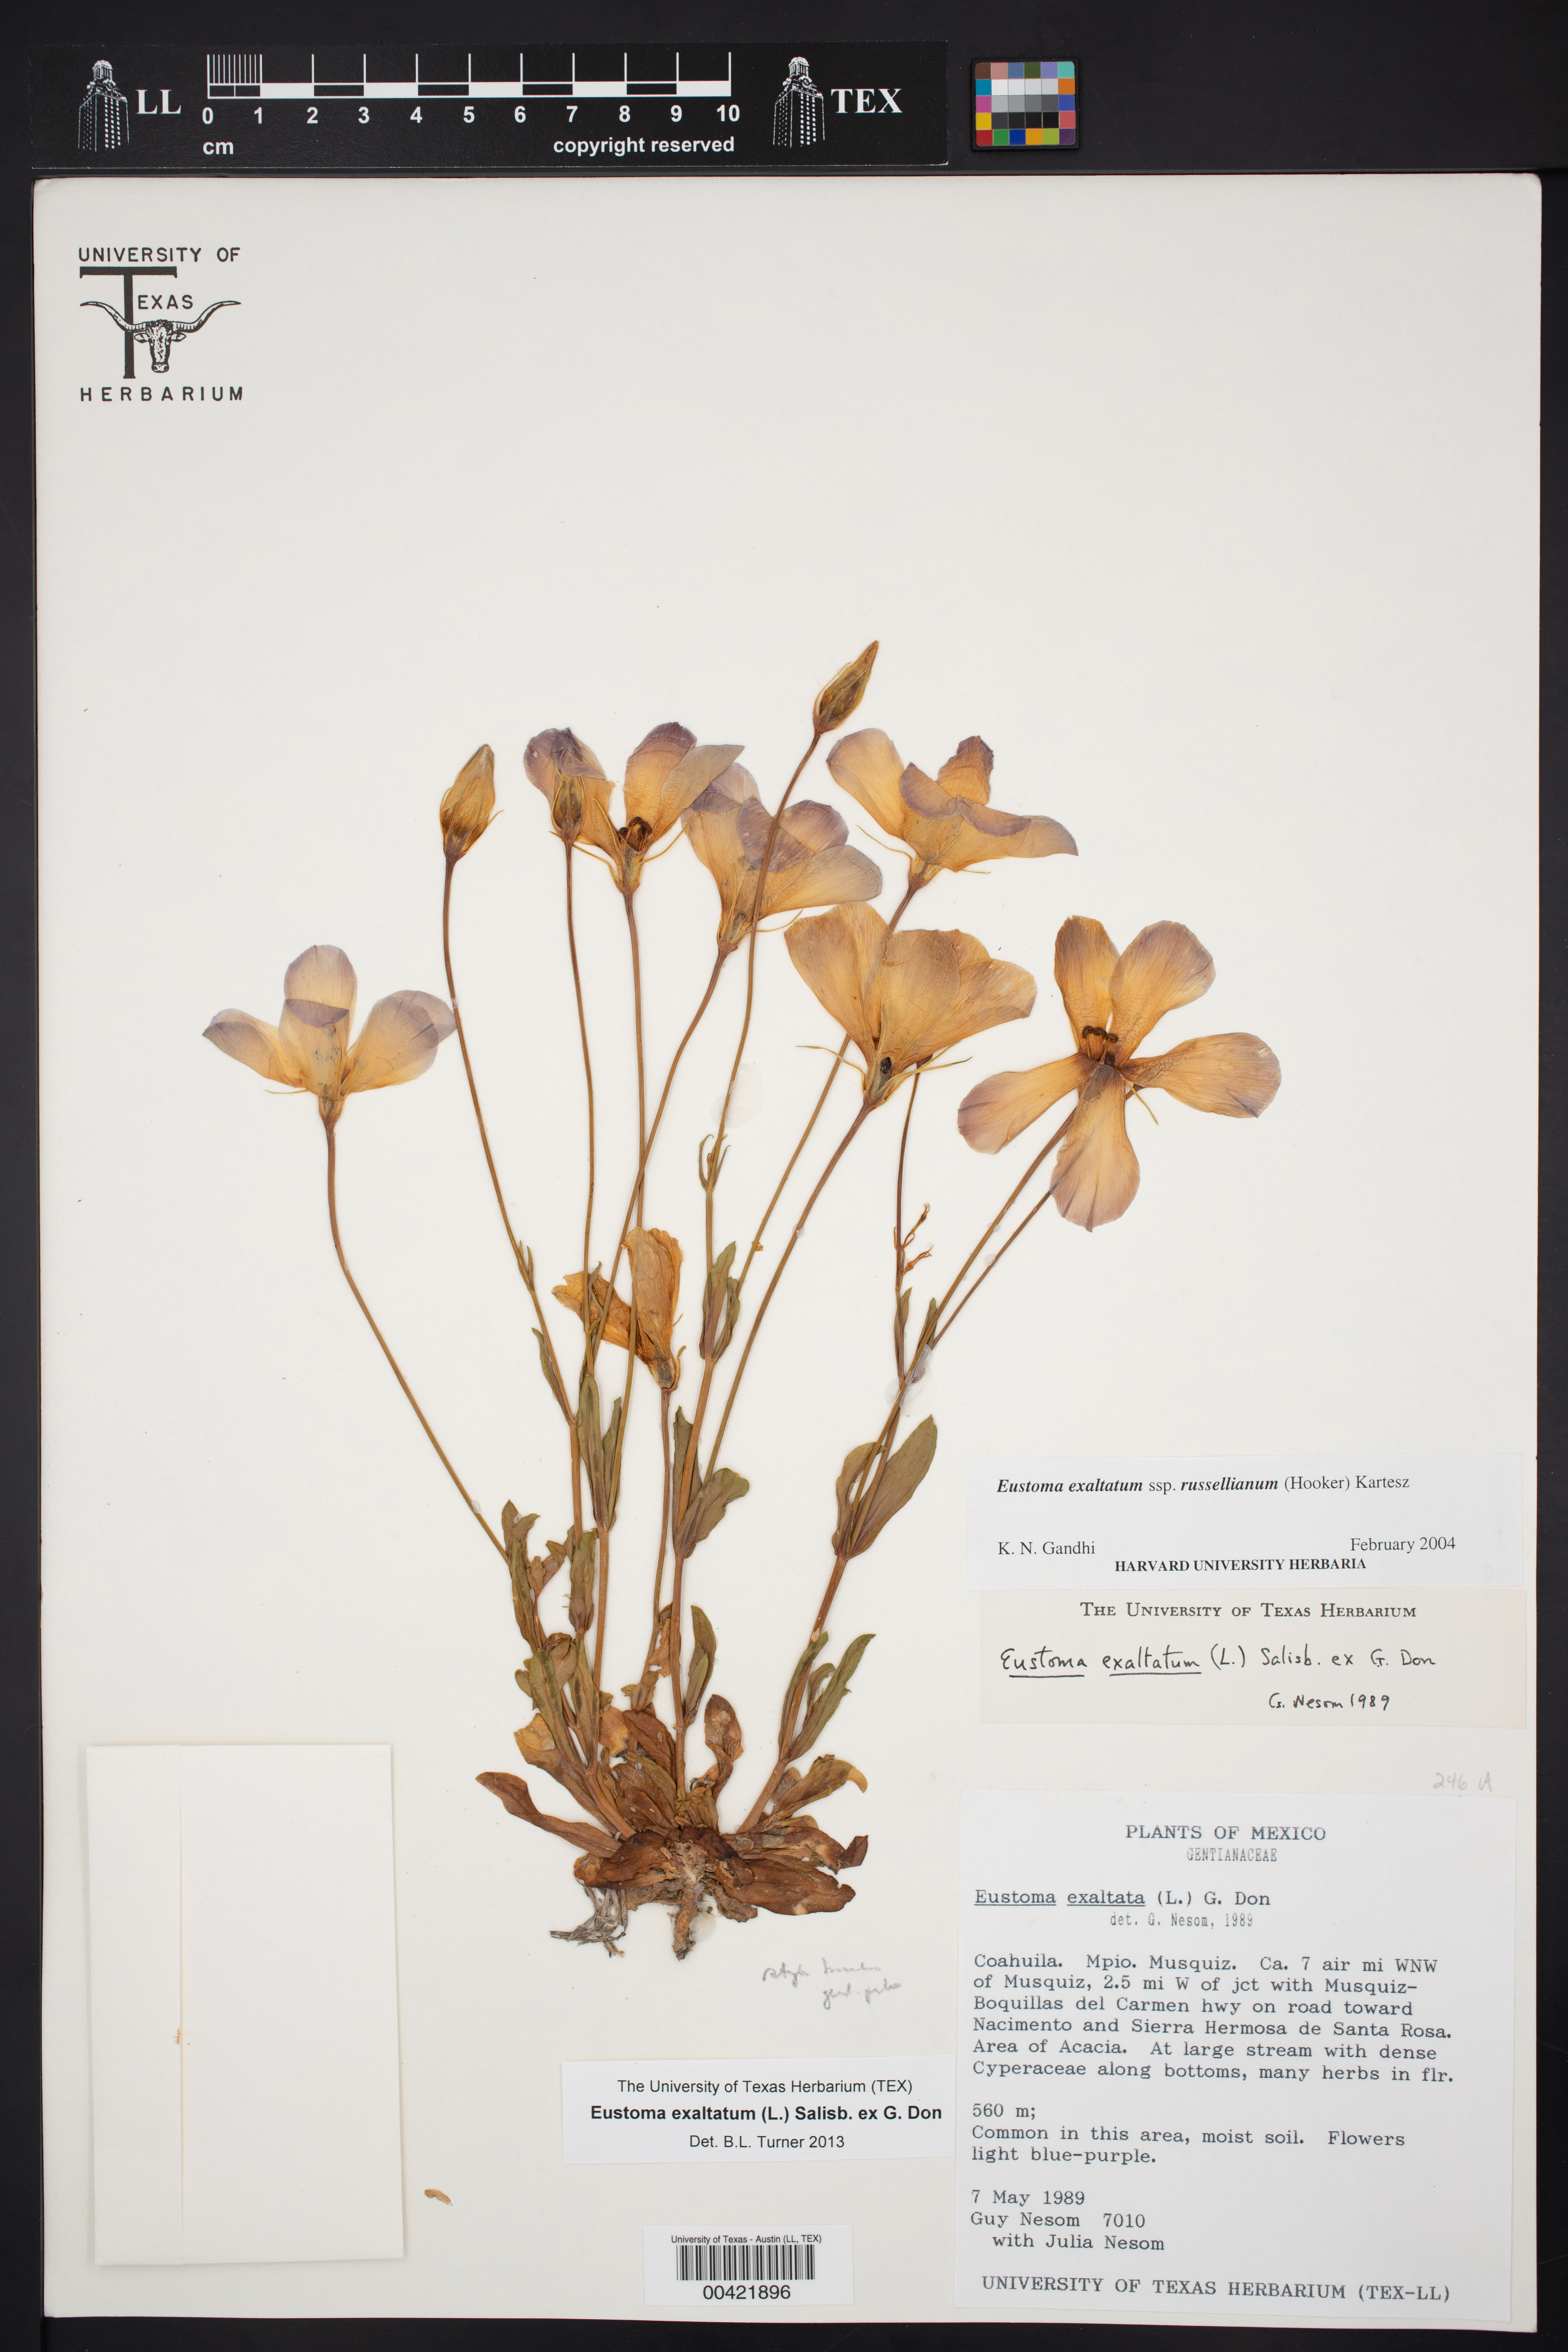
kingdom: Plantae
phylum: Tracheophyta
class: Magnoliopsida
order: Gentianales
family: Gentianaceae
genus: Eustoma
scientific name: Eustoma russellianum
